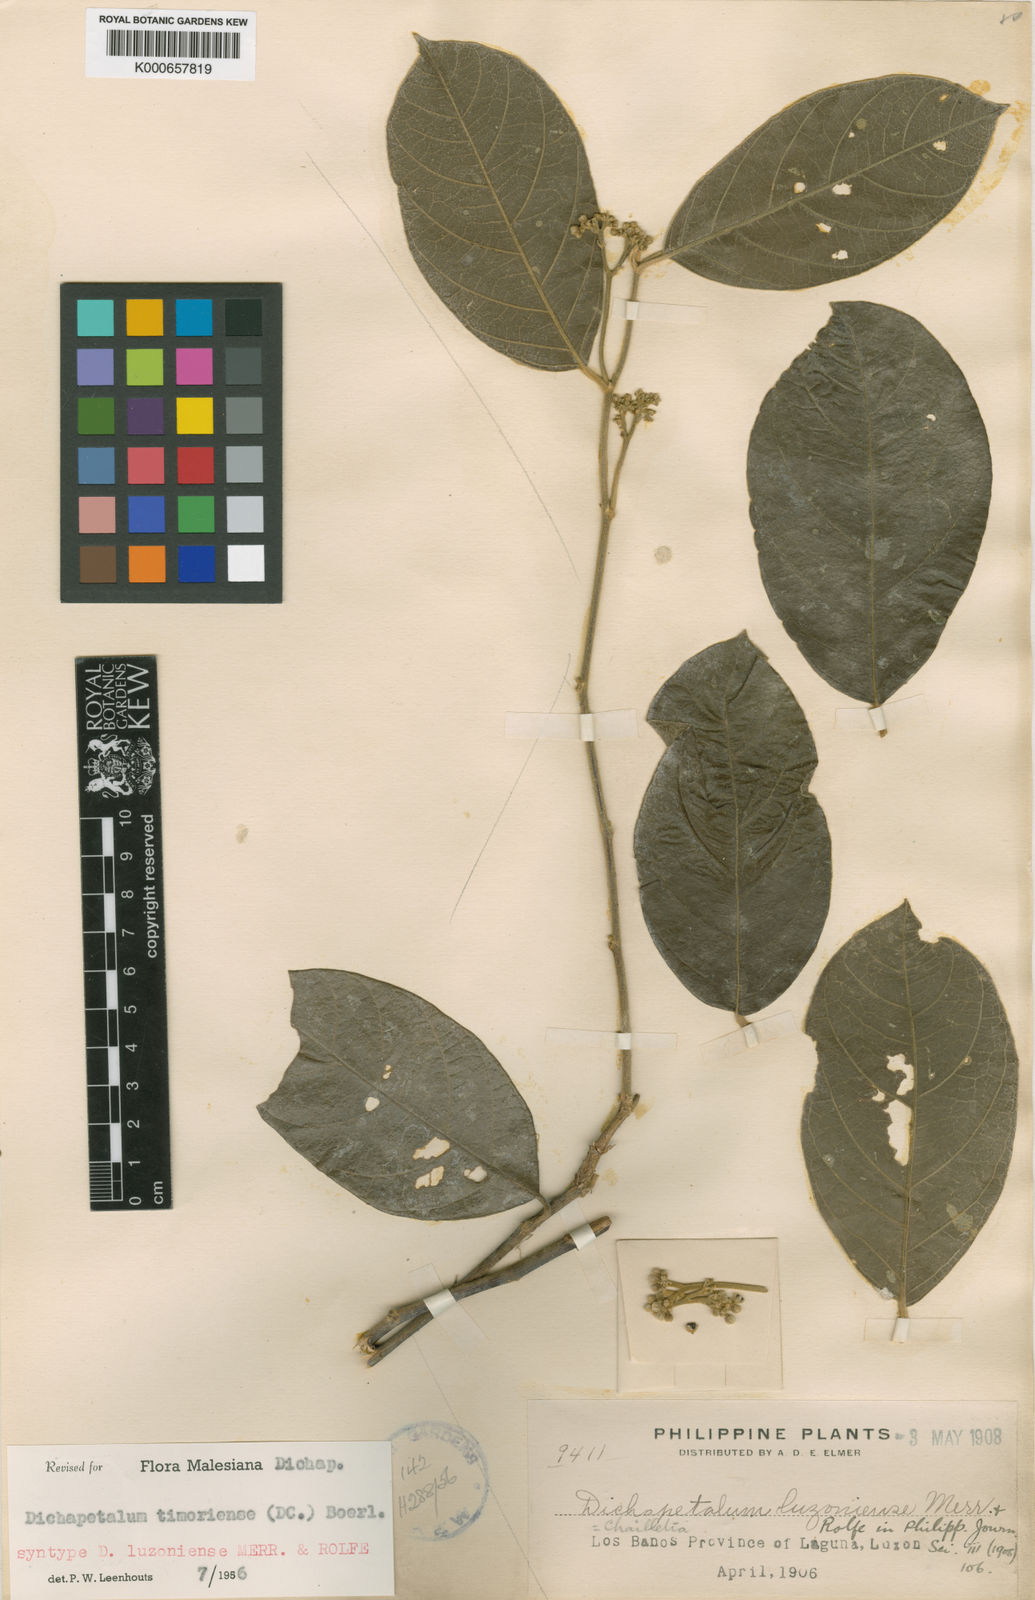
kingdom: Plantae
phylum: Tracheophyta
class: Magnoliopsida
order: Malpighiales
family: Dichapetalaceae
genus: Dichapetalum
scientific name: Dichapetalum timoriense
